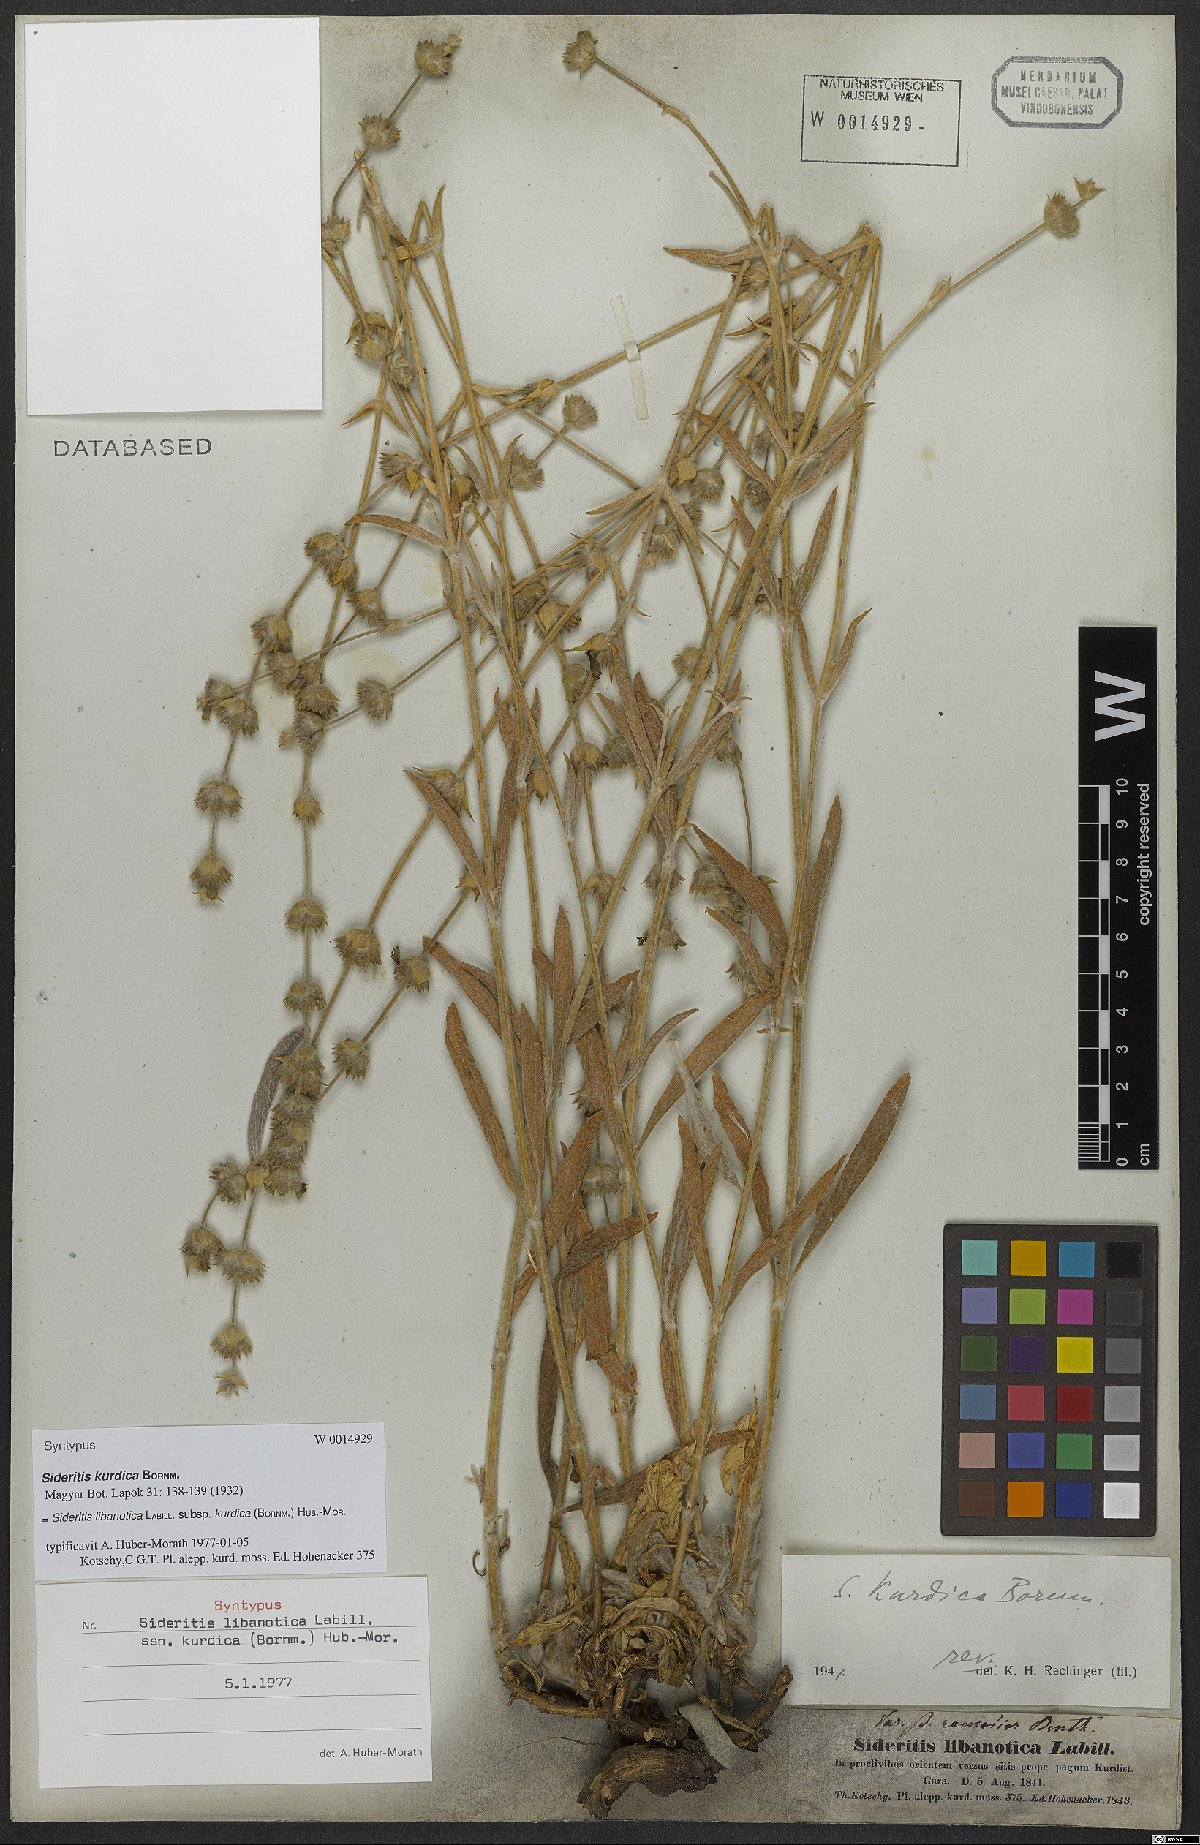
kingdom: Plantae
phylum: Tracheophyta
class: Magnoliopsida
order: Lamiales
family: Lamiaceae
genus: Sideritis
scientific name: Sideritis libanotica
